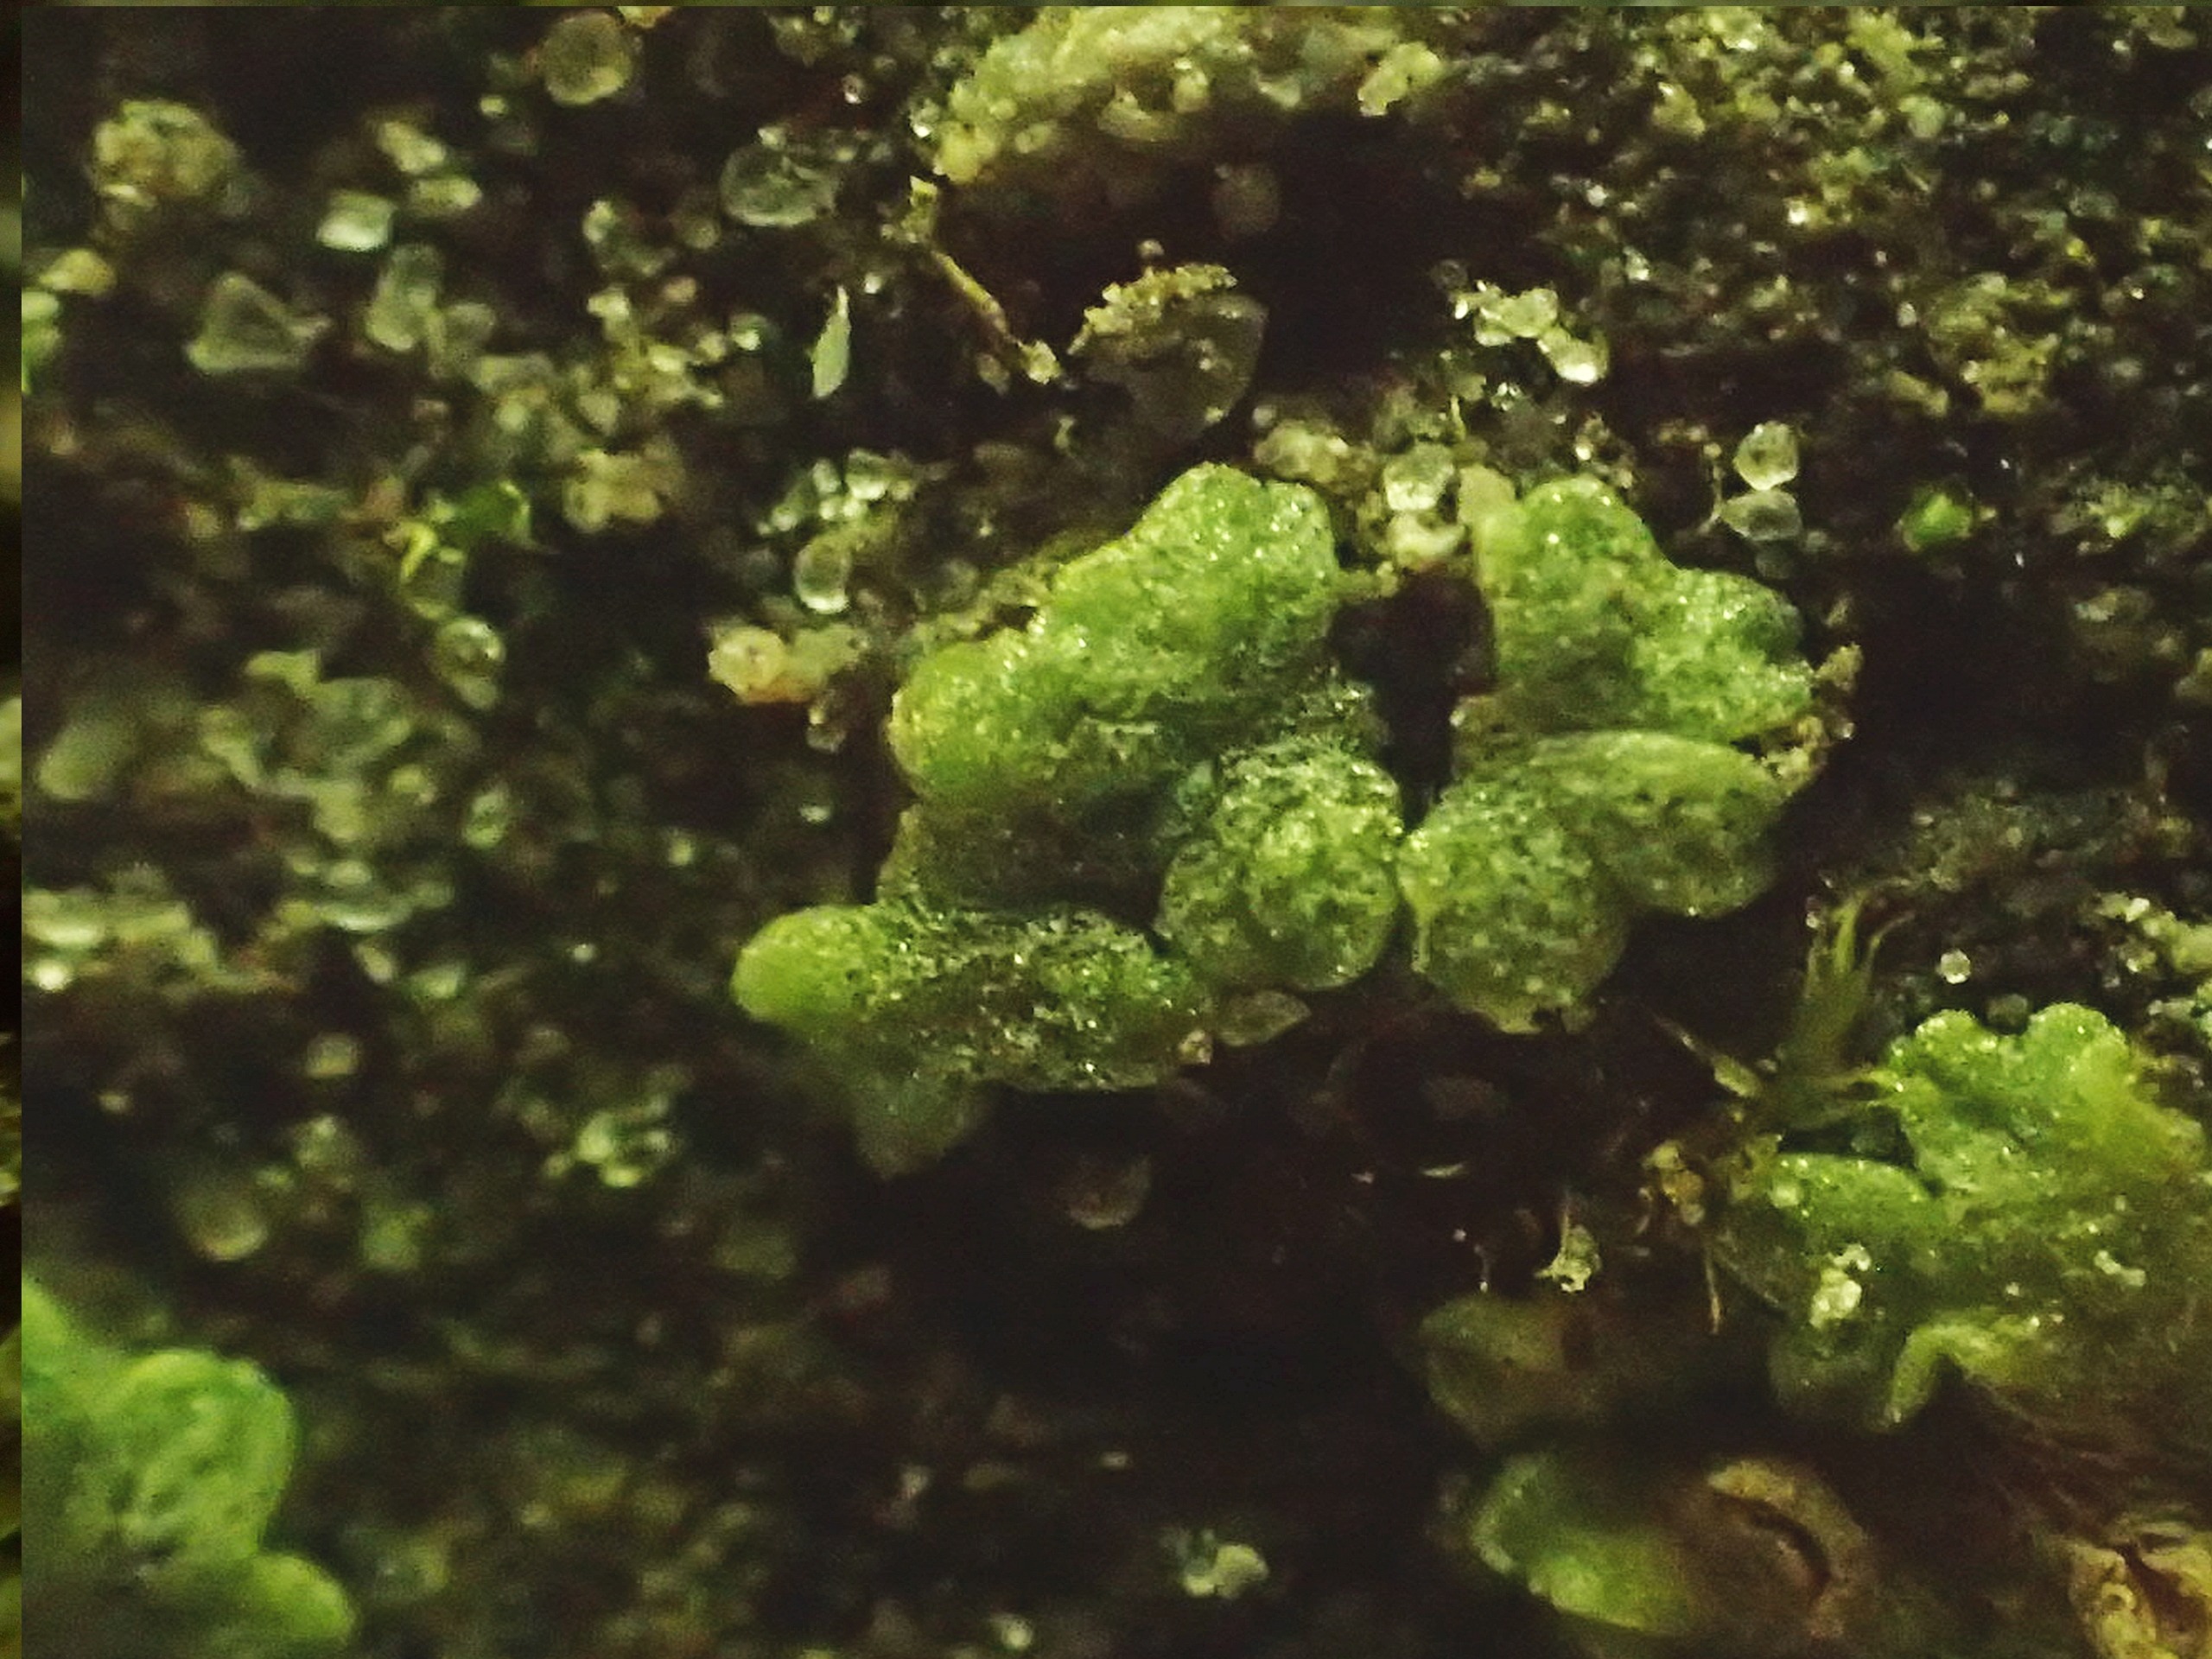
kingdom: Plantae
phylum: Marchantiophyta
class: Marchantiopsida
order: Marchantiales
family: Ricciaceae
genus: Riccia
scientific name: Riccia cavernosa
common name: Grubet stjerneløv
